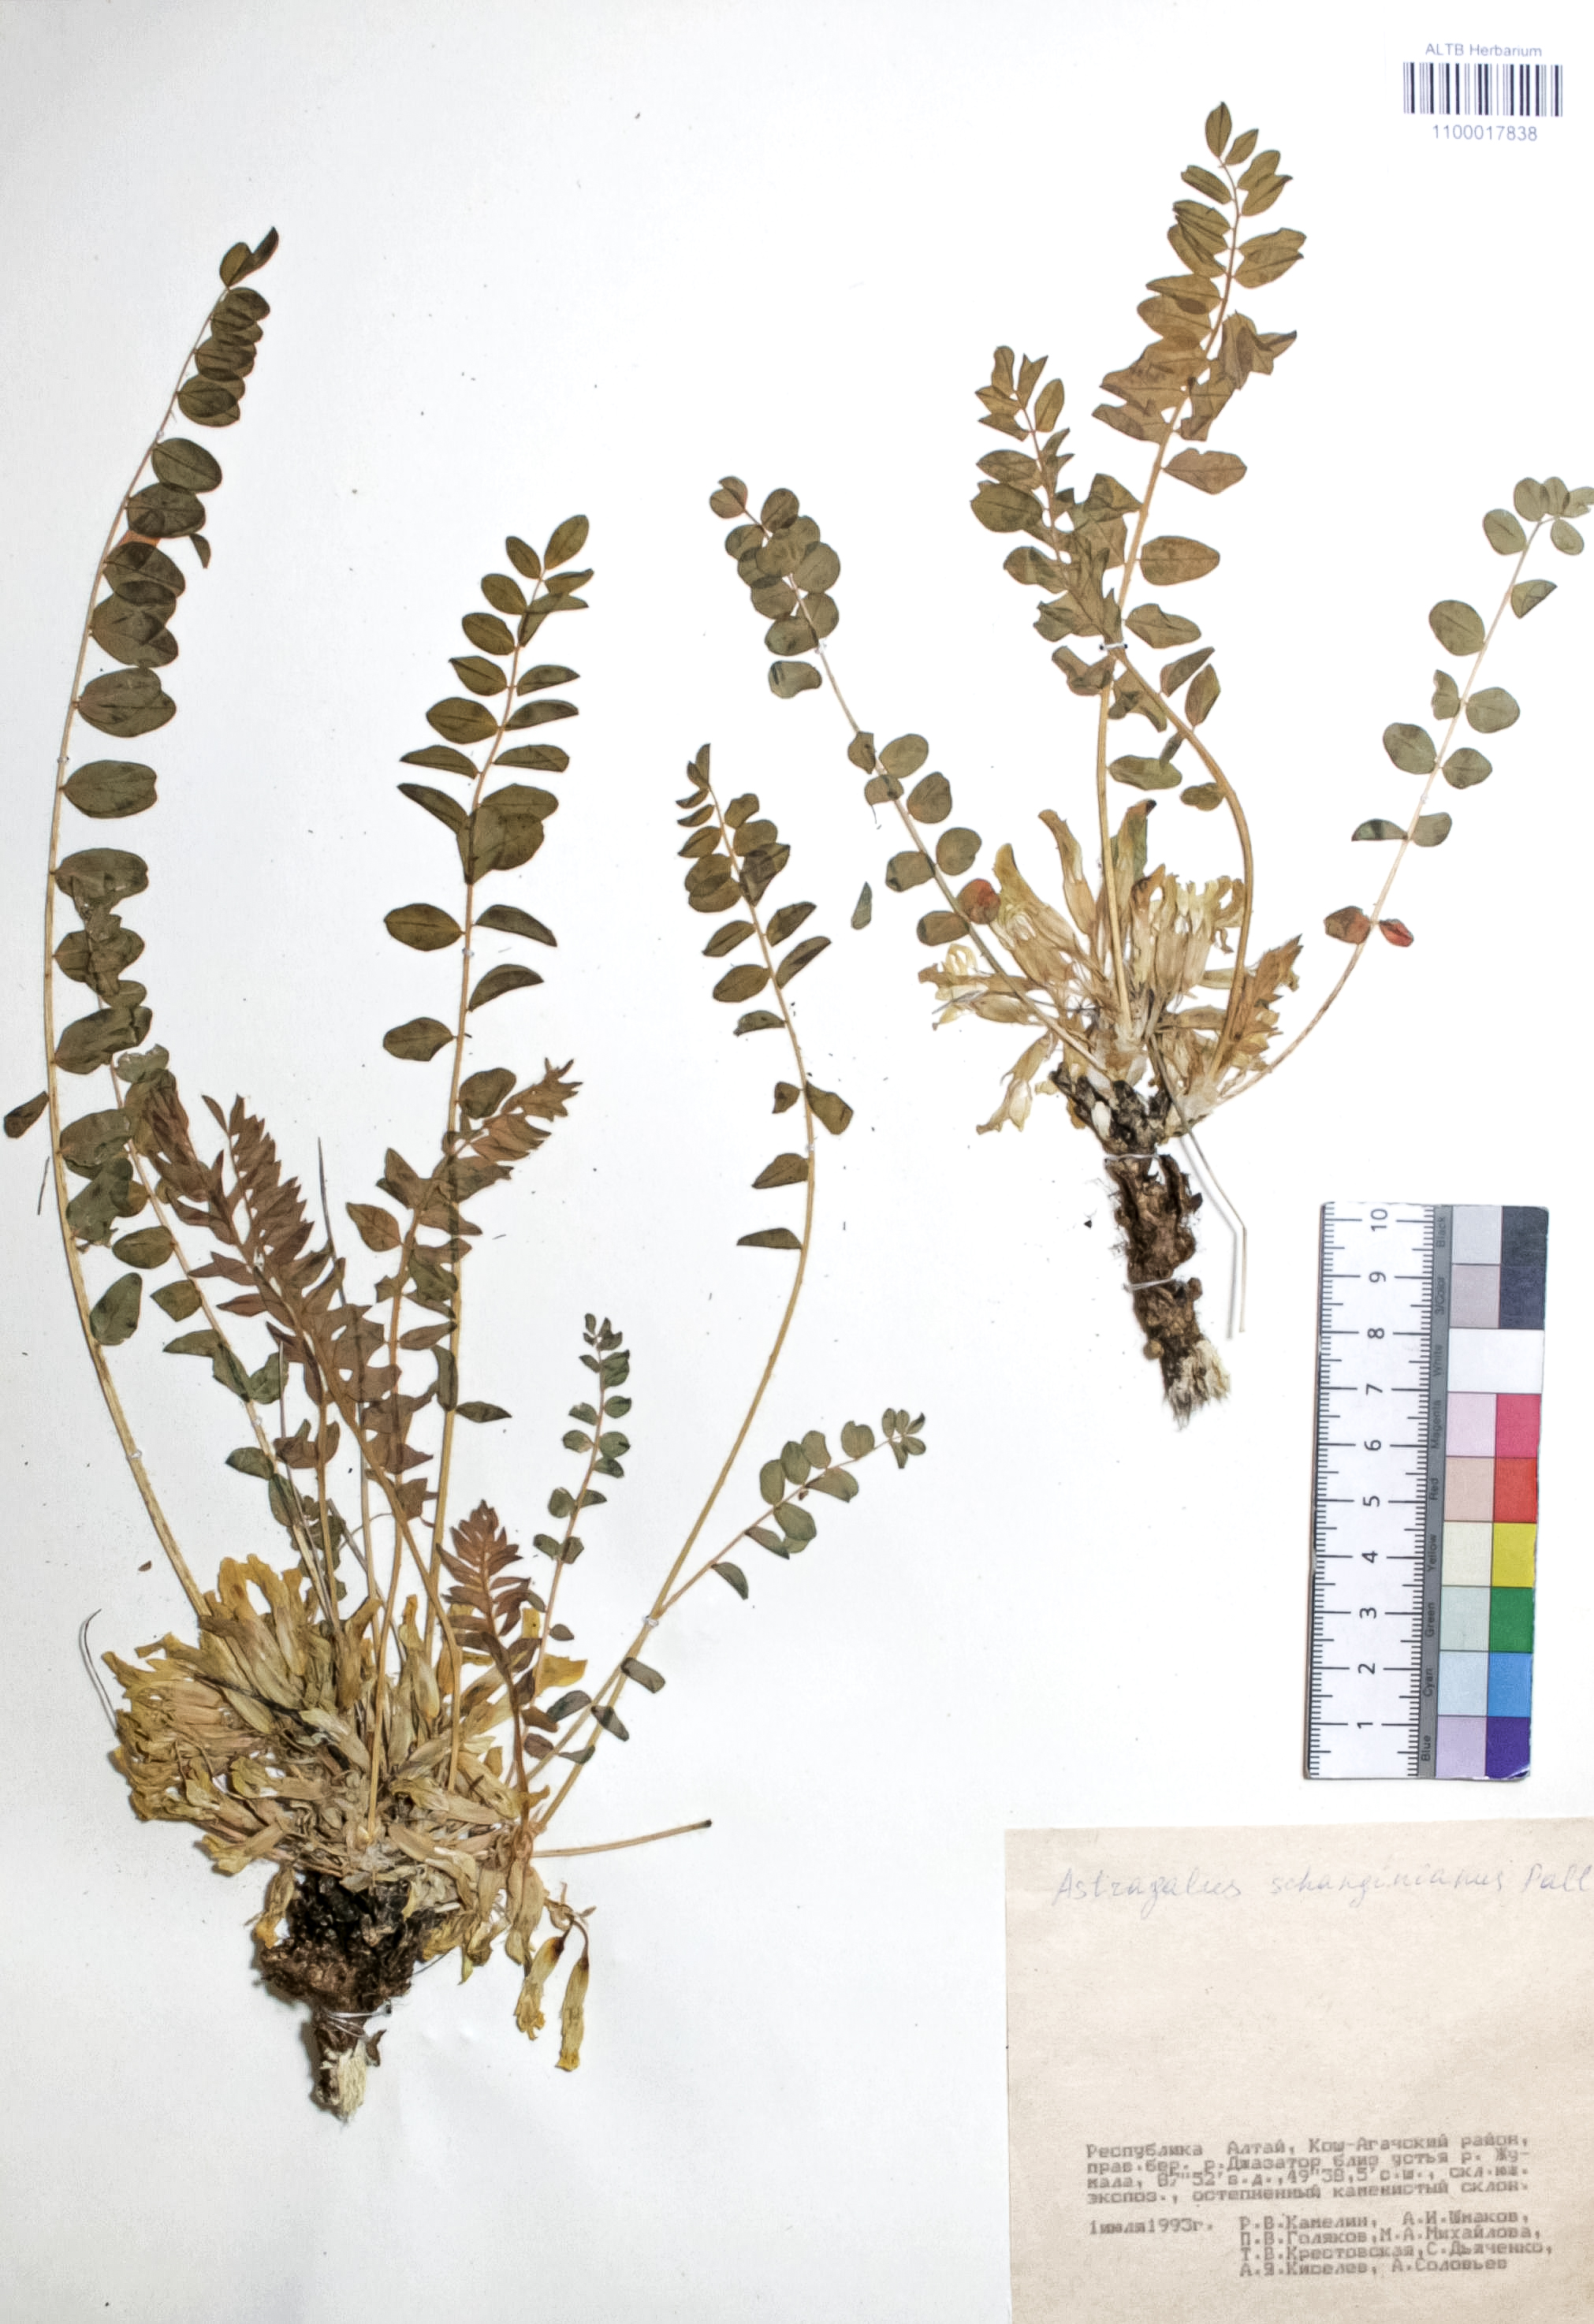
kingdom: Plantae
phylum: Tracheophyta
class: Magnoliopsida
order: Fabales
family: Fabaceae
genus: Astragalus
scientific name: Astragalus schanginianus
